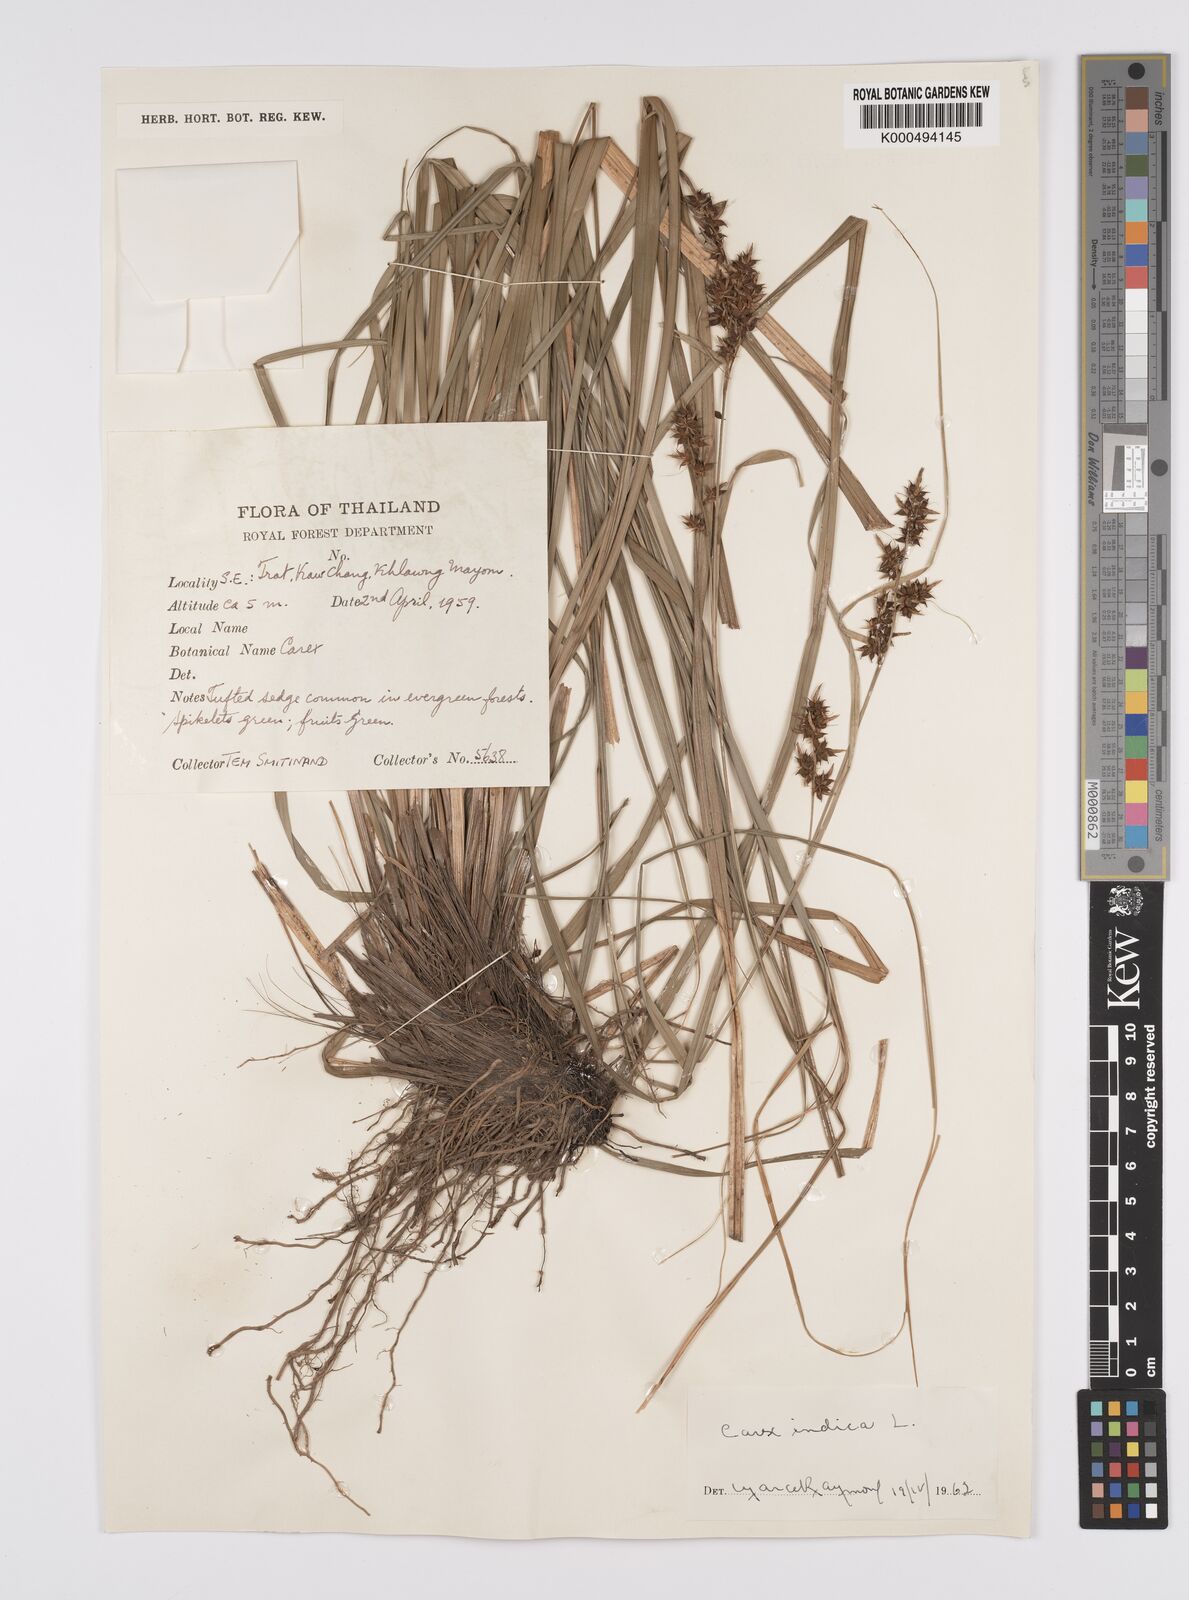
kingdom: Plantae
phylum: Tracheophyta
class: Liliopsida
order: Poales
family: Cyperaceae
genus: Carex
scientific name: Carex indica
